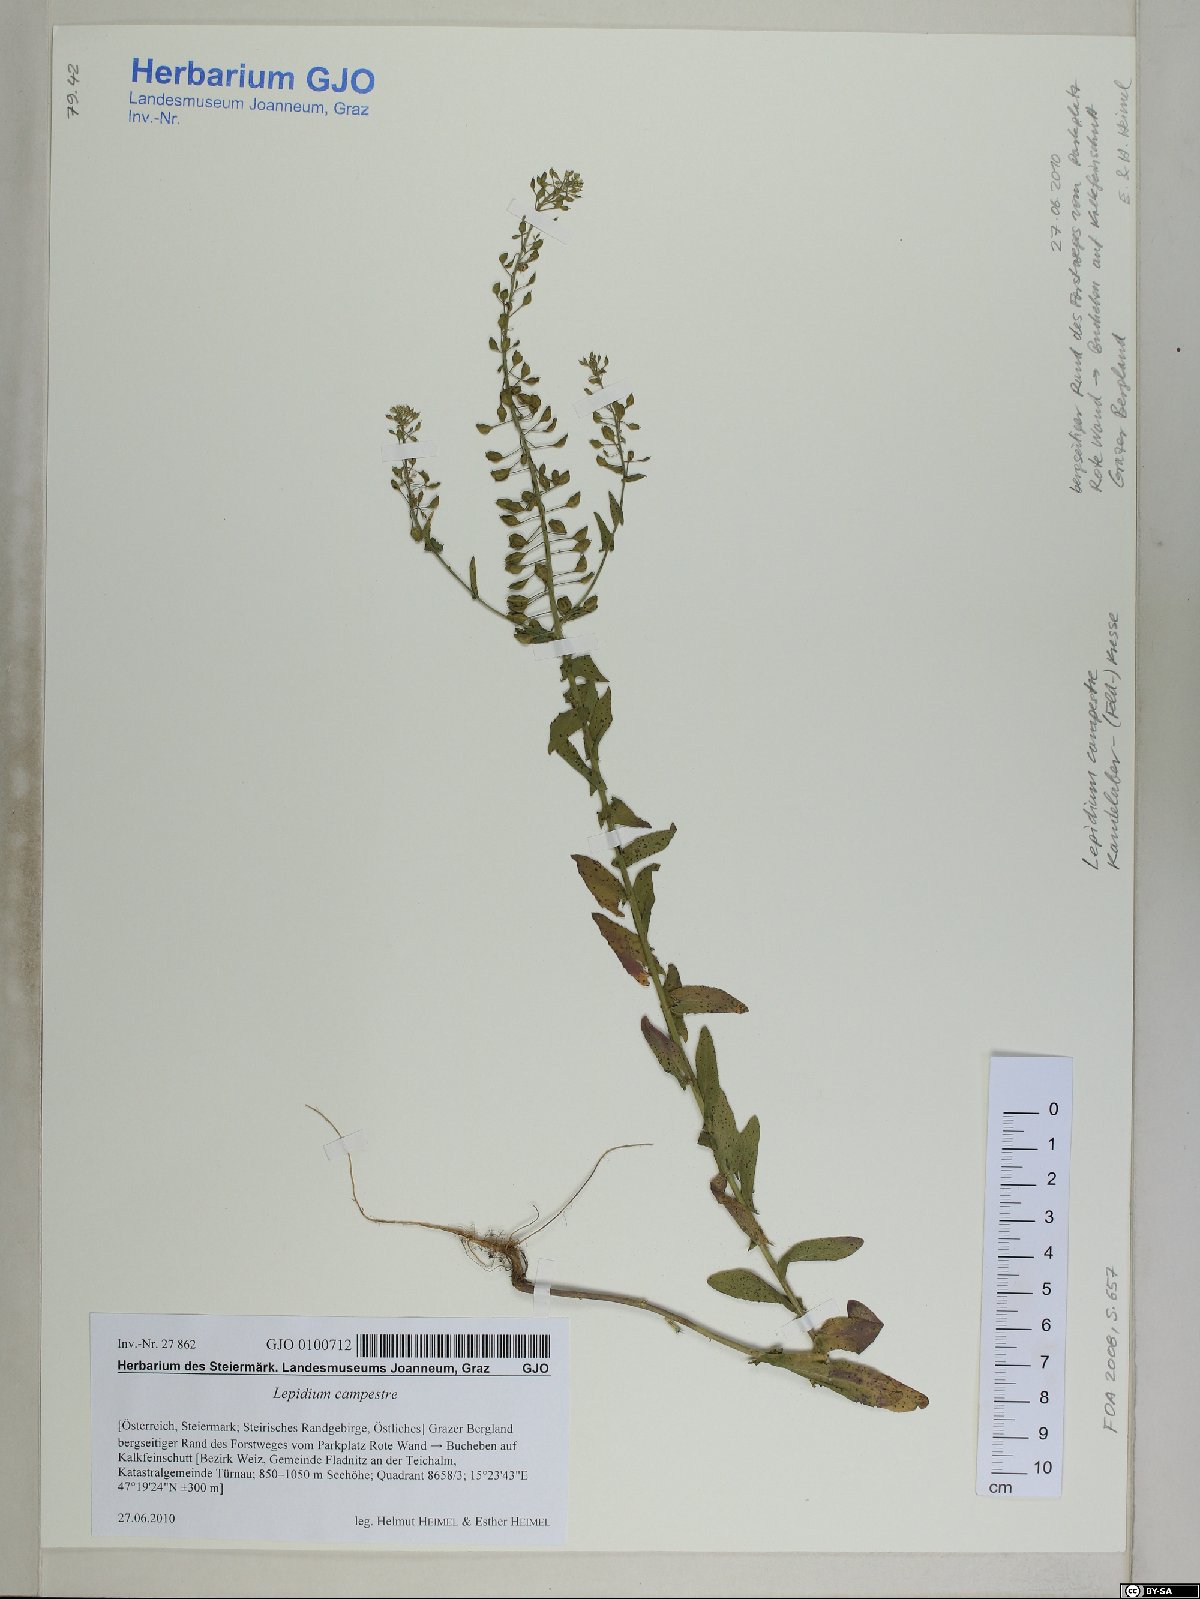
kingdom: Plantae
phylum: Tracheophyta
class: Magnoliopsida
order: Brassicales
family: Brassicaceae
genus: Lepidium
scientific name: Lepidium campestre
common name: Field pepperwort
